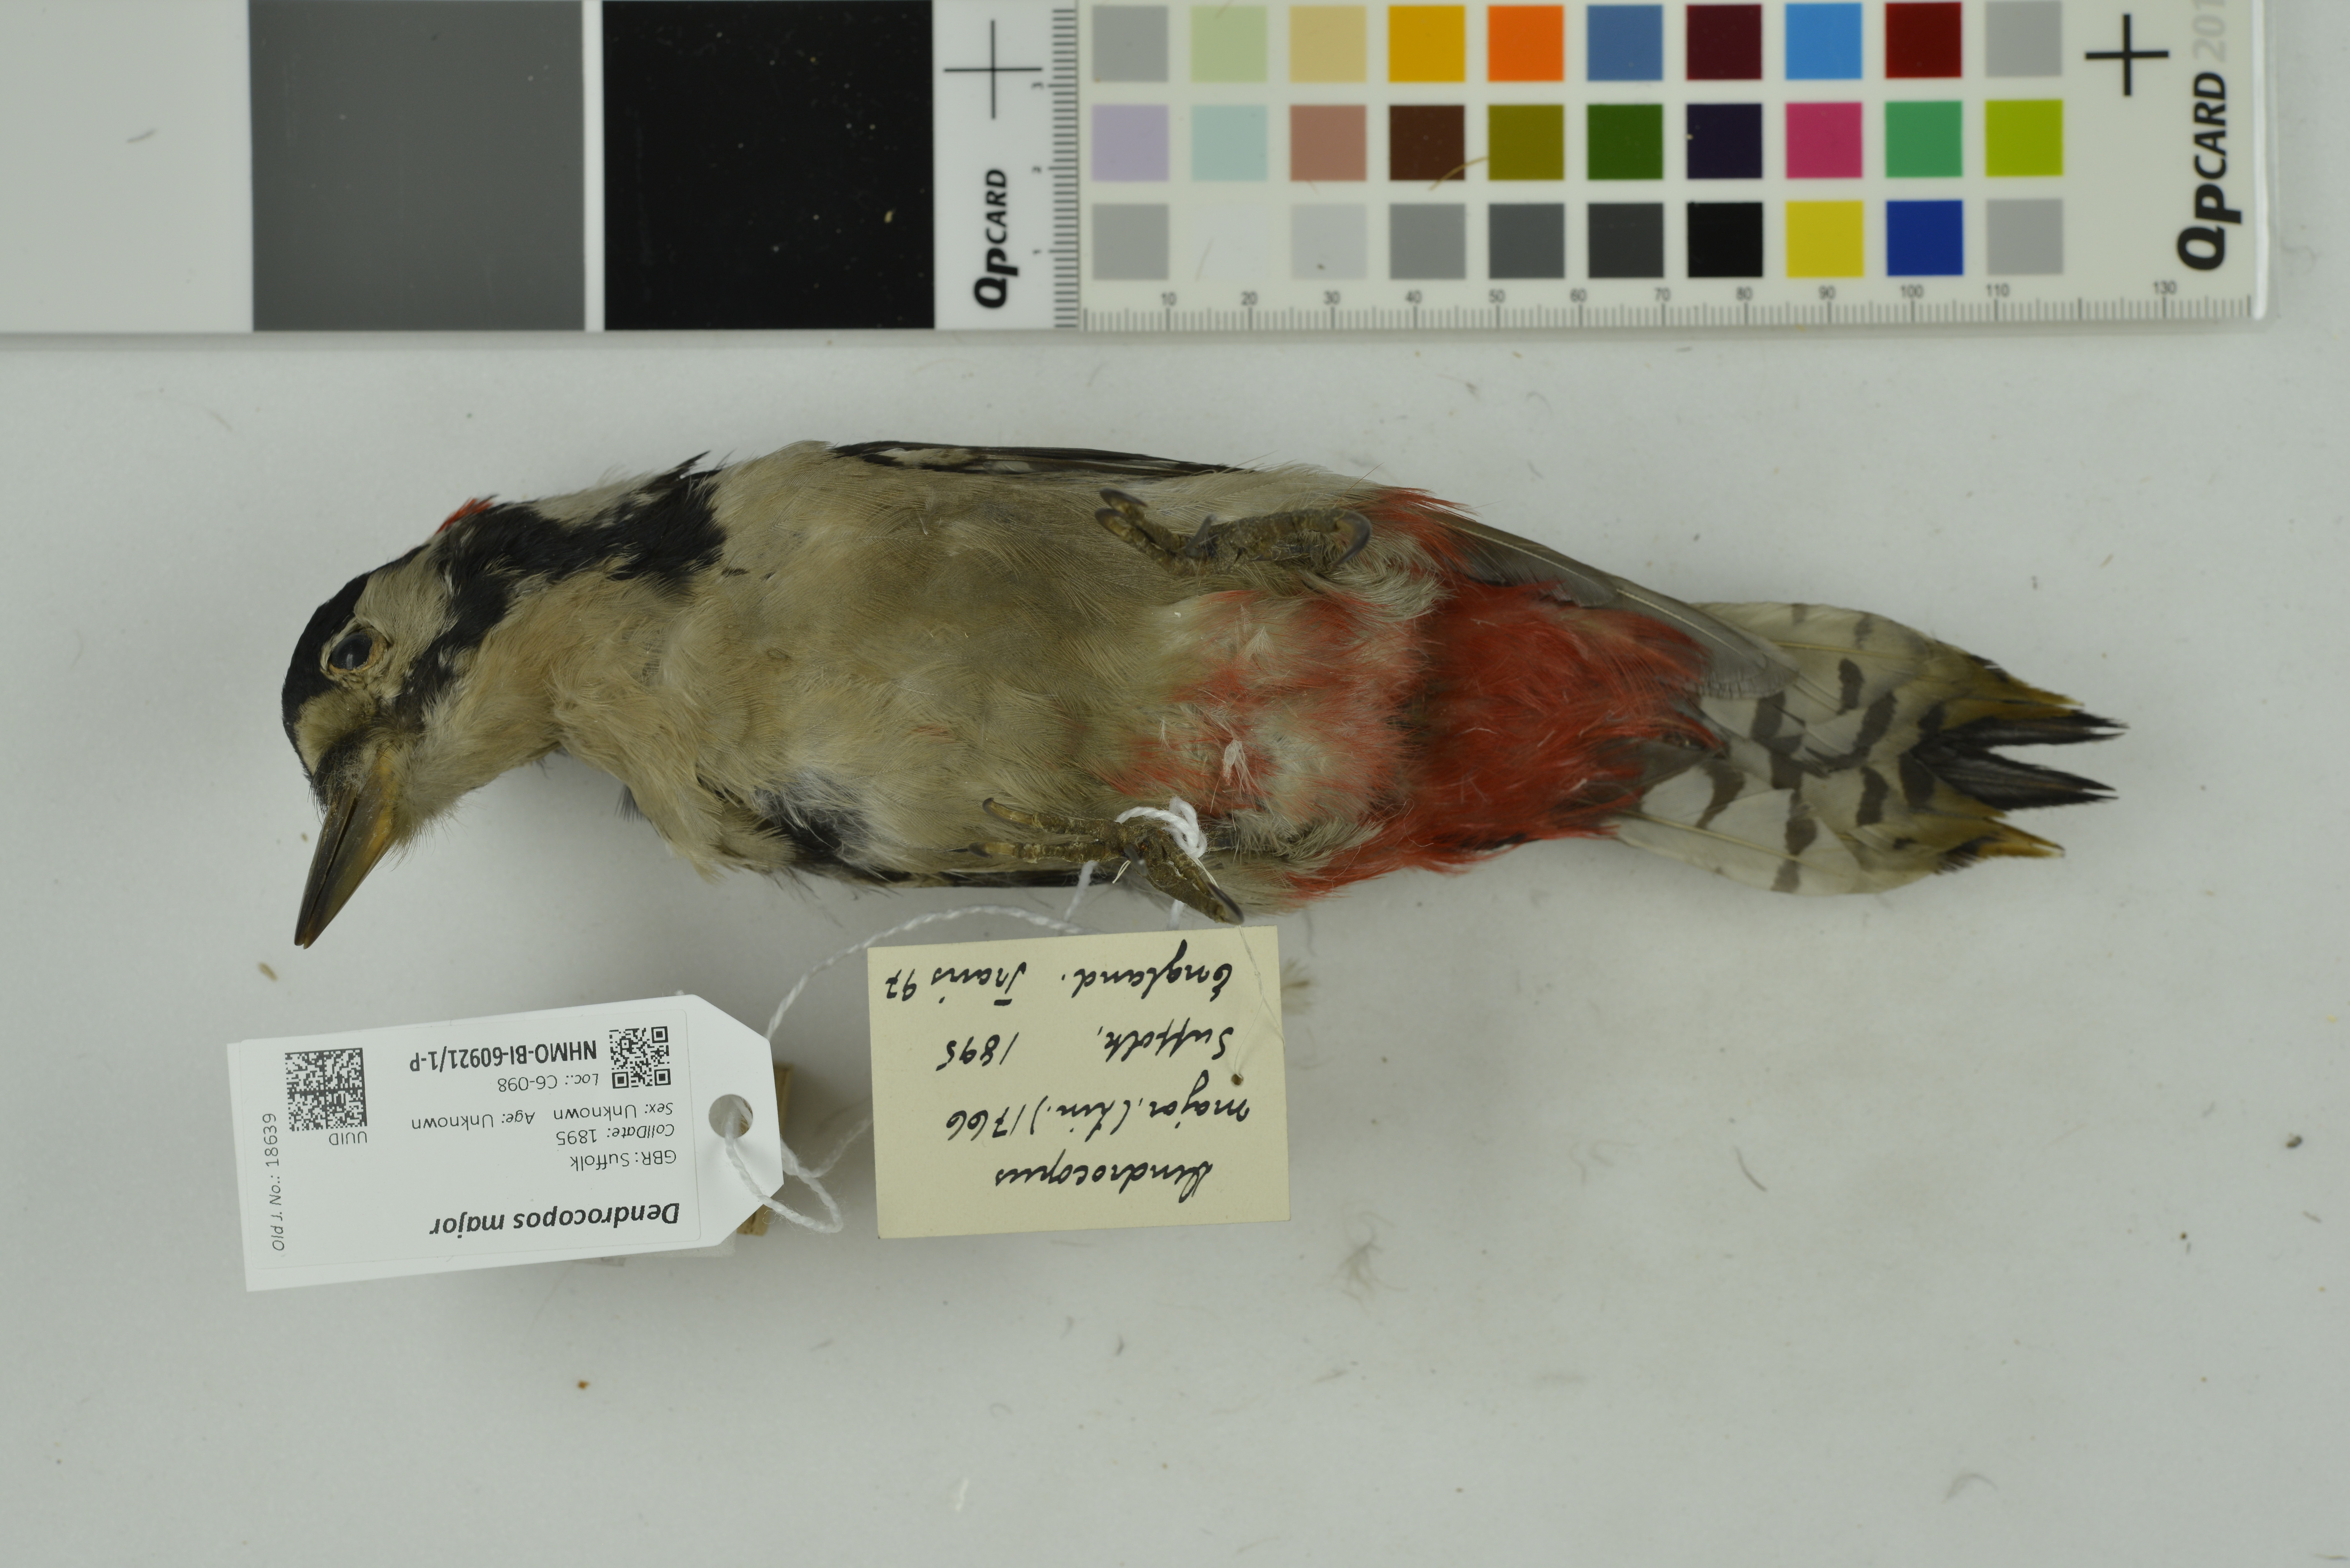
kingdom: Animalia
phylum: Chordata
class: Aves
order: Piciformes
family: Picidae
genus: Dendrocopos
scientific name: Dendrocopos major
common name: Great spotted woodpecker
